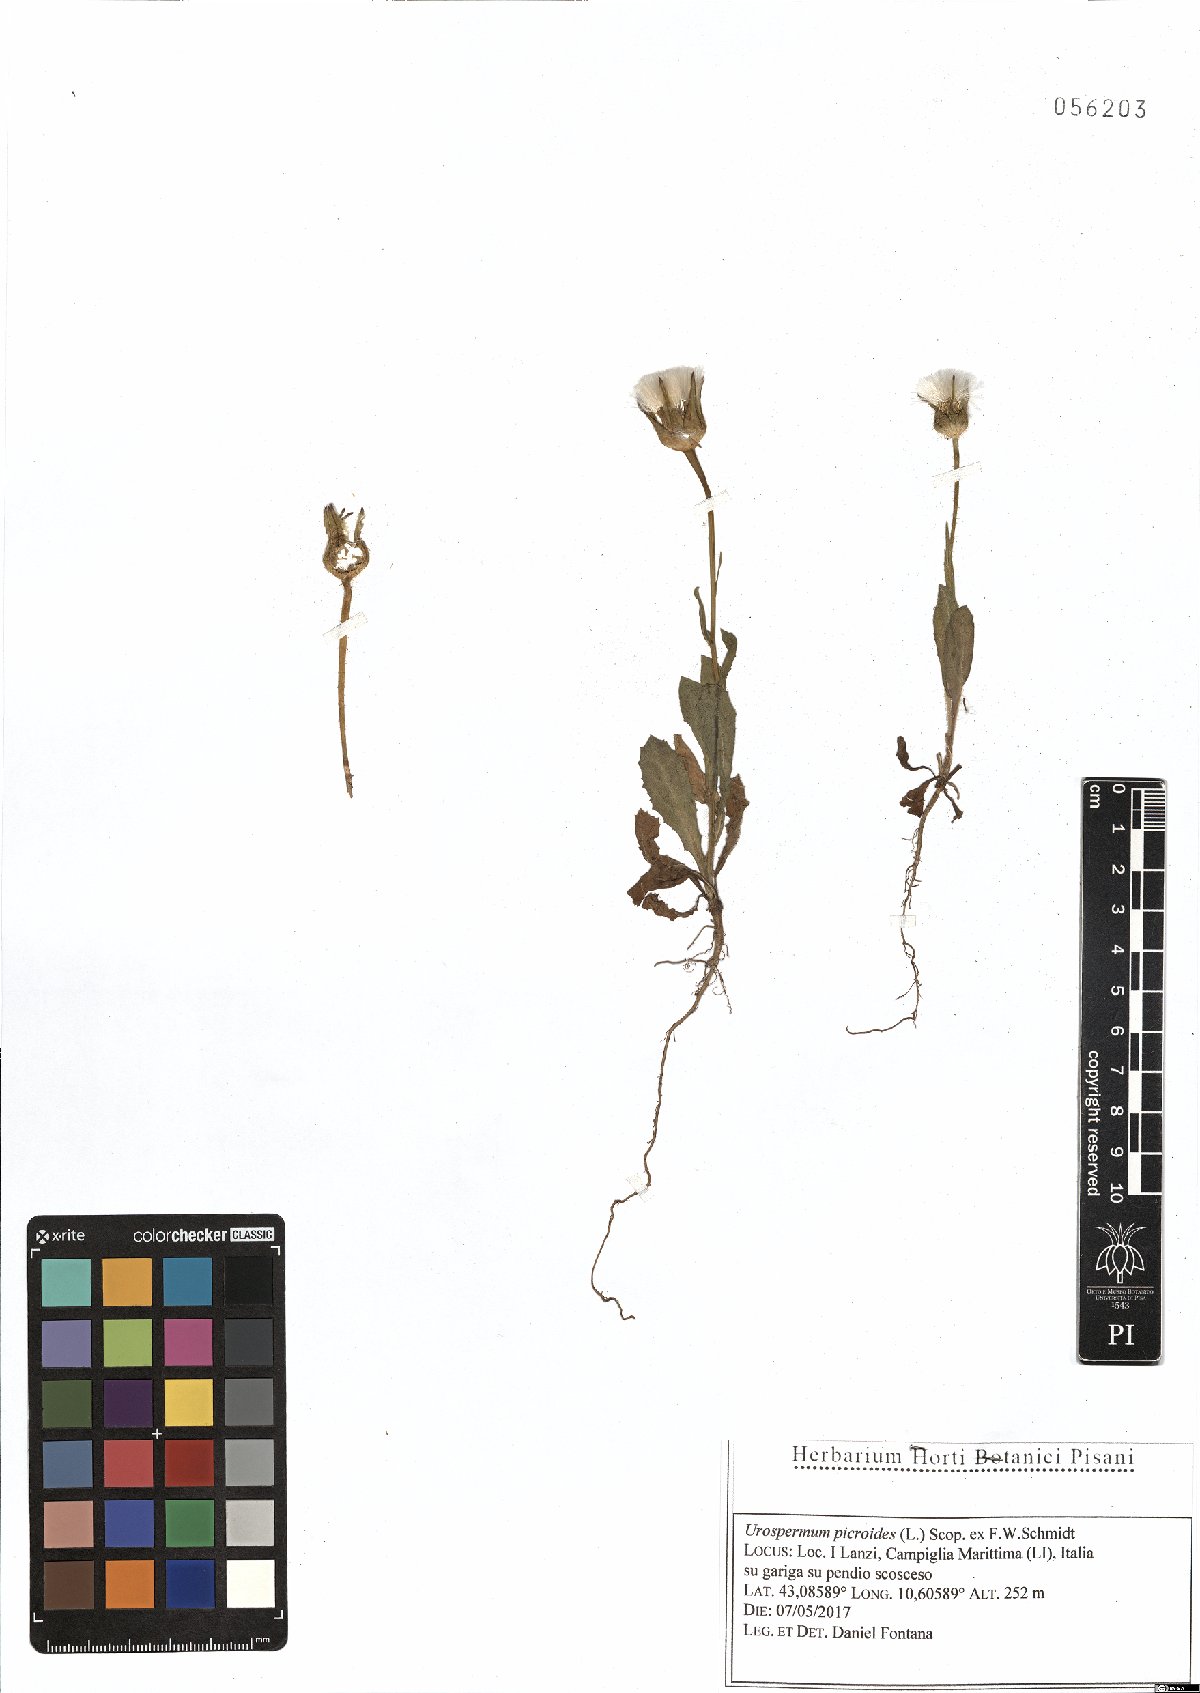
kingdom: Plantae
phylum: Tracheophyta
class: Magnoliopsida
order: Asterales
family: Asteraceae
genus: Urospermum
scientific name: Urospermum picroides
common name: False hawkbit
